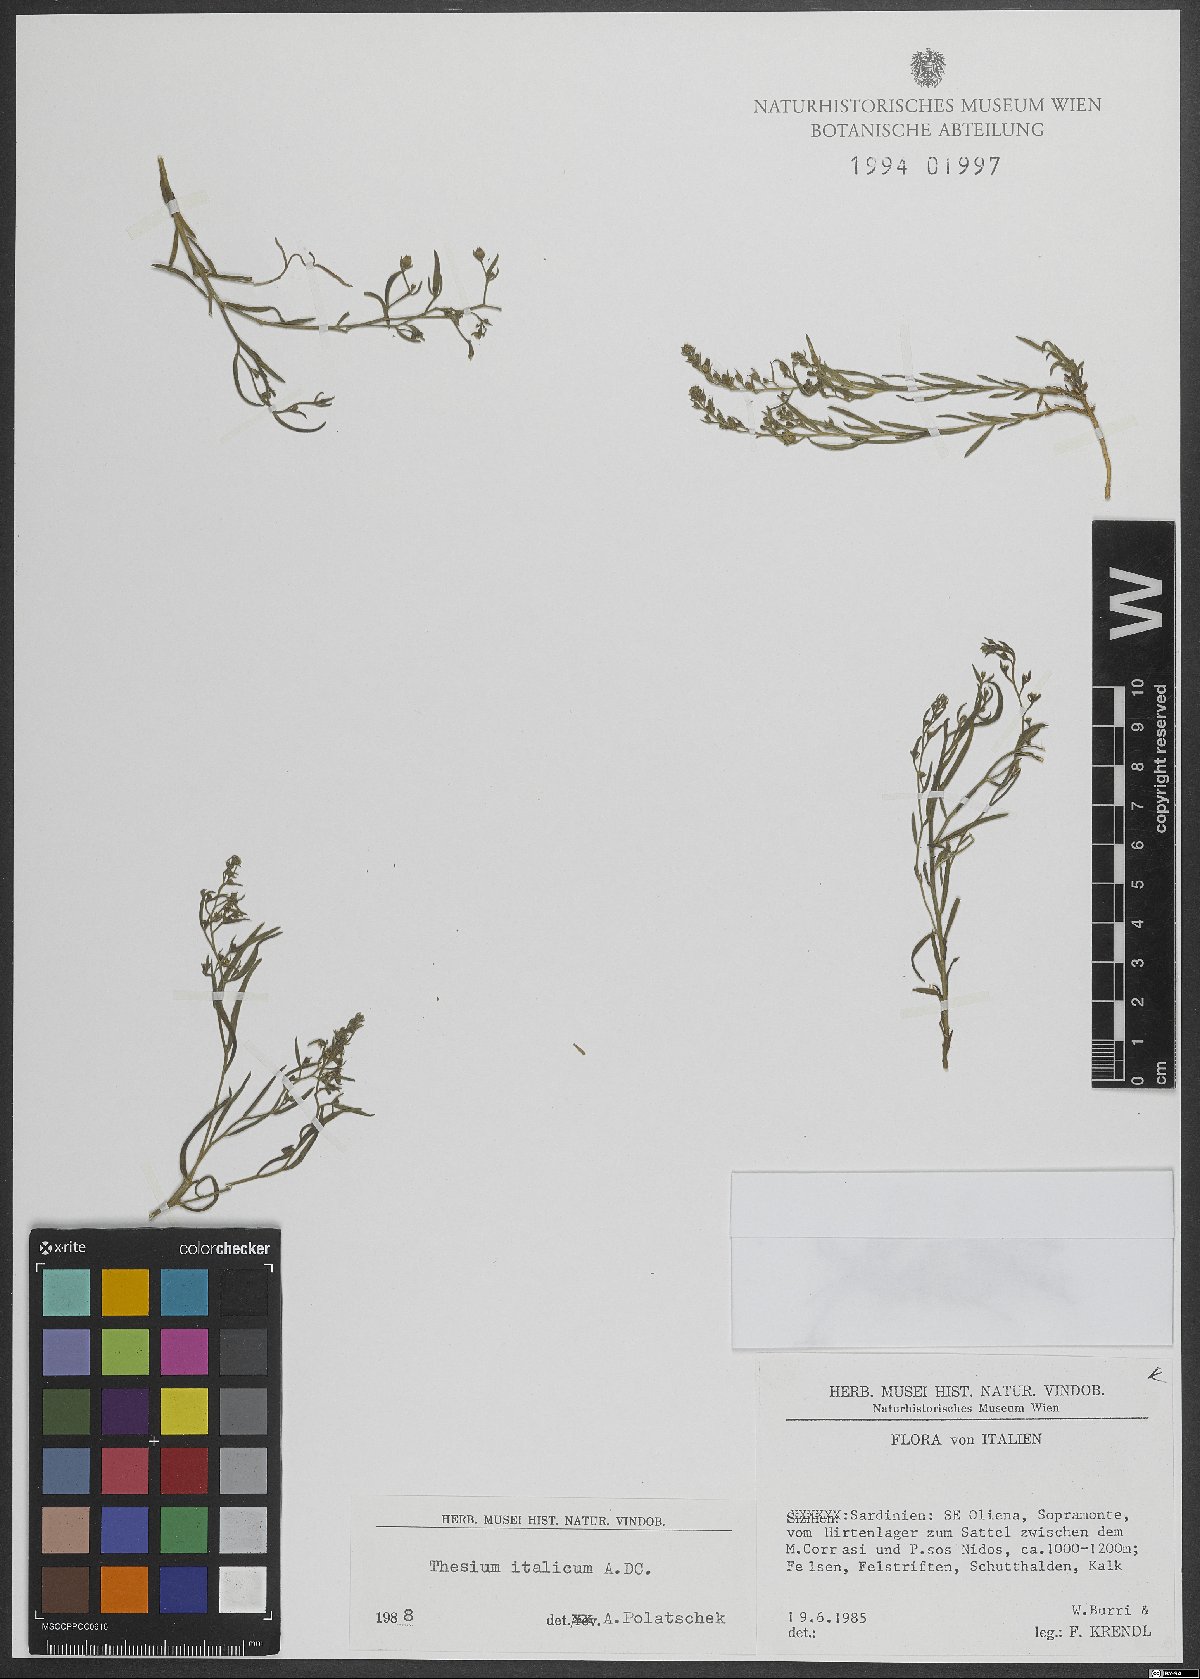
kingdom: Plantae
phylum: Tracheophyta
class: Magnoliopsida
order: Santalales
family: Thesiaceae
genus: Thesium
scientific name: Thesium italicum
